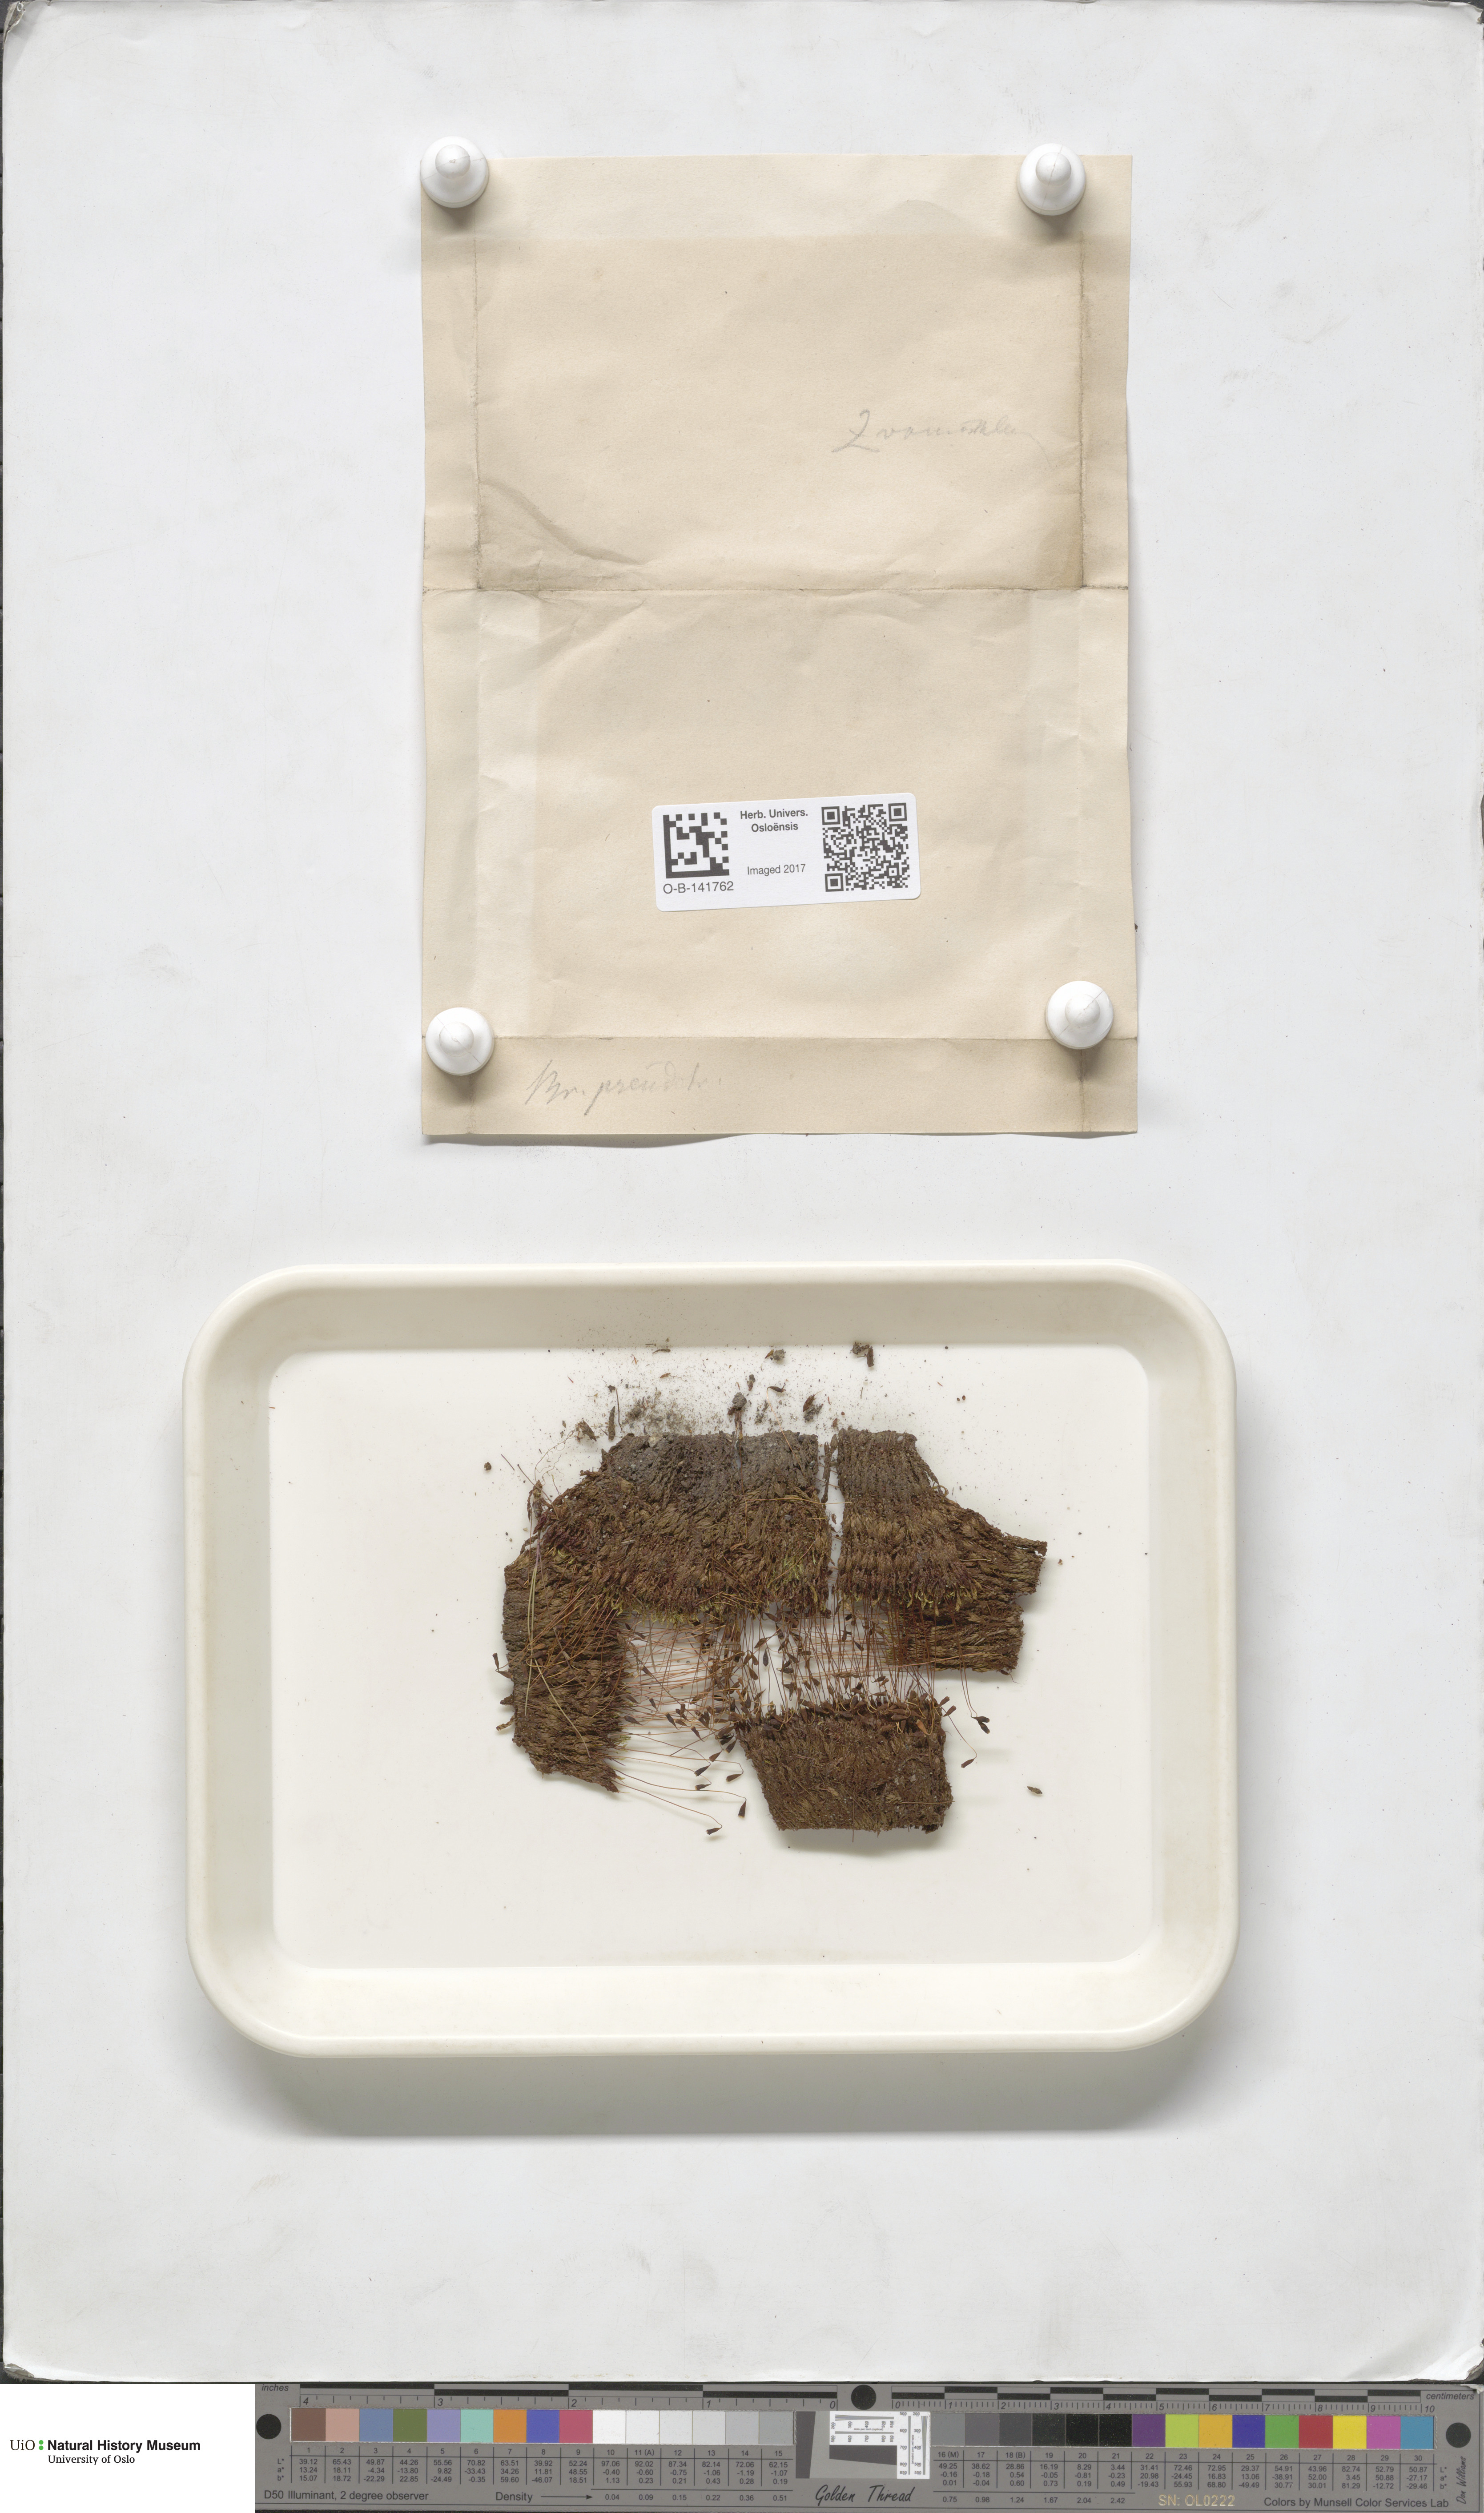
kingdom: Plantae
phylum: Bryophyta
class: Bryopsida
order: Bryales
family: Bryaceae
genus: Ptychostomum
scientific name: Ptychostomum pseudotriquetrum
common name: Long-leaved thread moss
